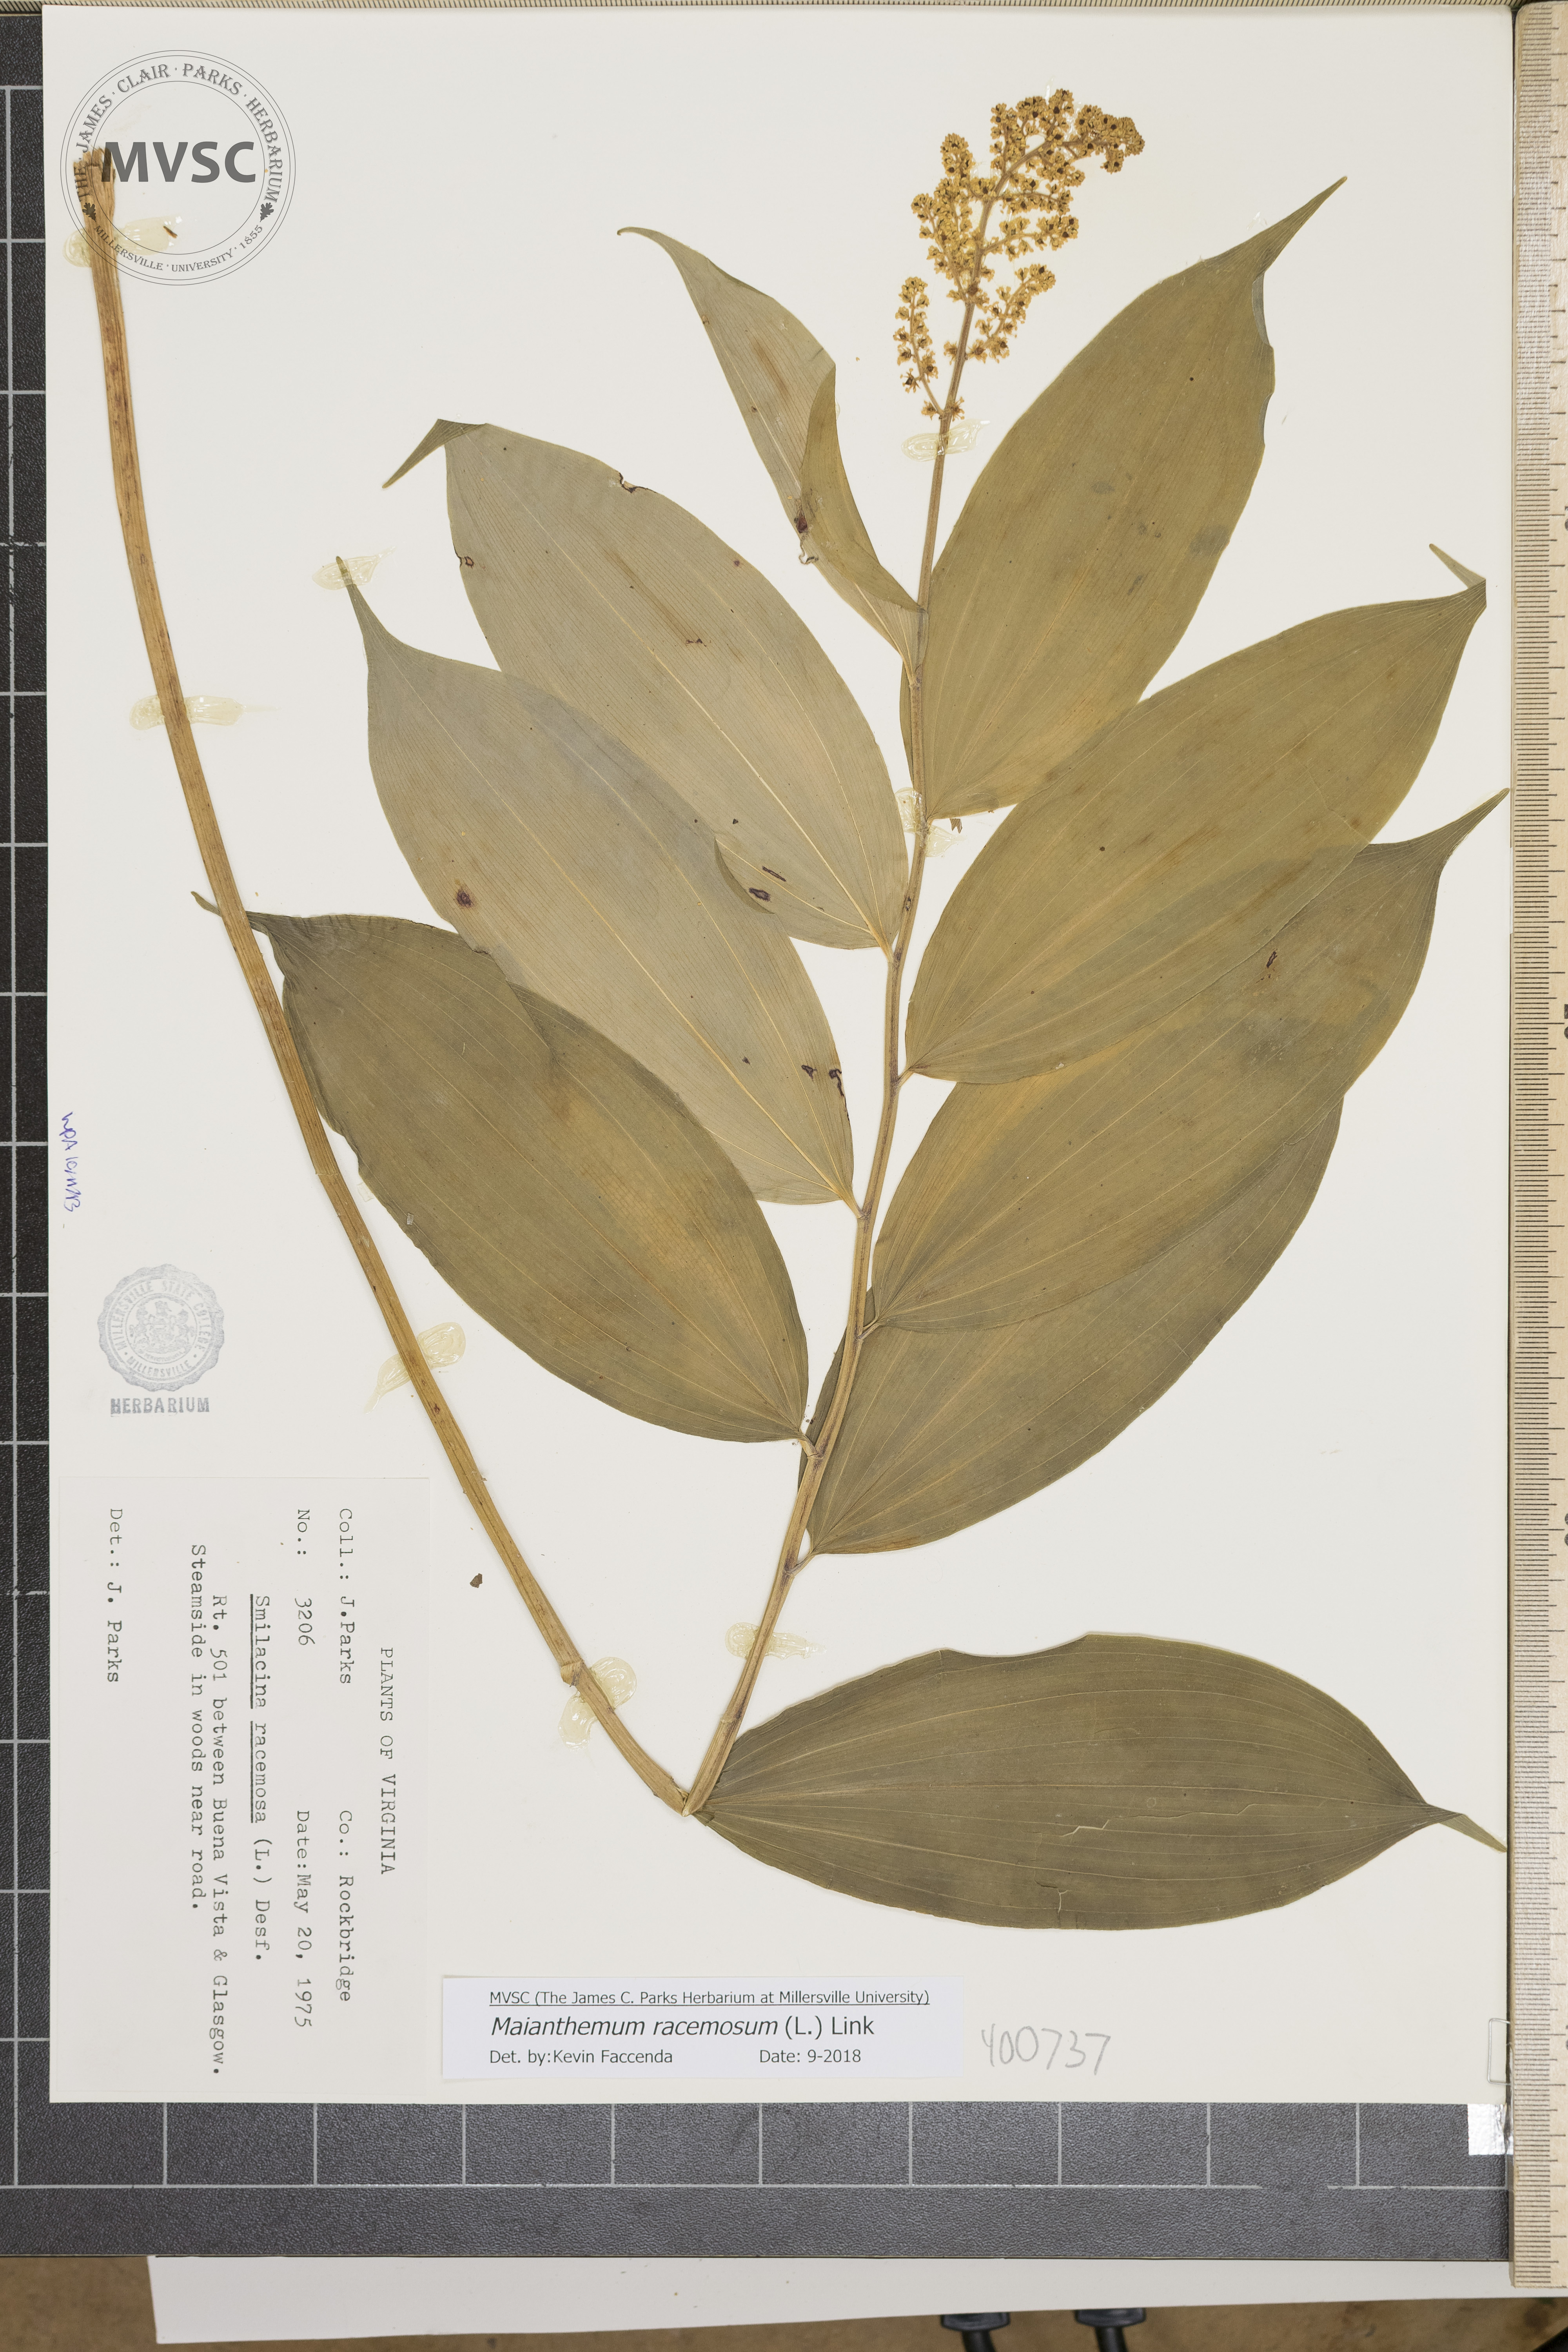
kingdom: Plantae
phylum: Tracheophyta
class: Liliopsida
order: Asparagales
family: Asparagaceae
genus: Maianthemum
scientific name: Maianthemum racemosum
